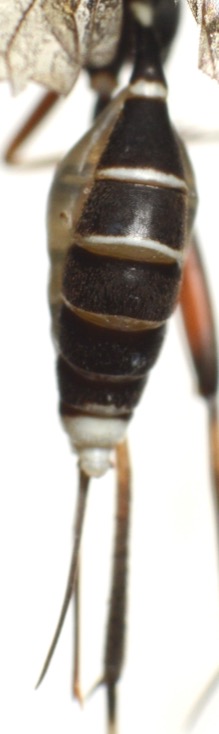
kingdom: Animalia
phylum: Arthropoda
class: Insecta
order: Hymenoptera
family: Ichneumonidae
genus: Picardiella
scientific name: Picardiella melanoleuca
